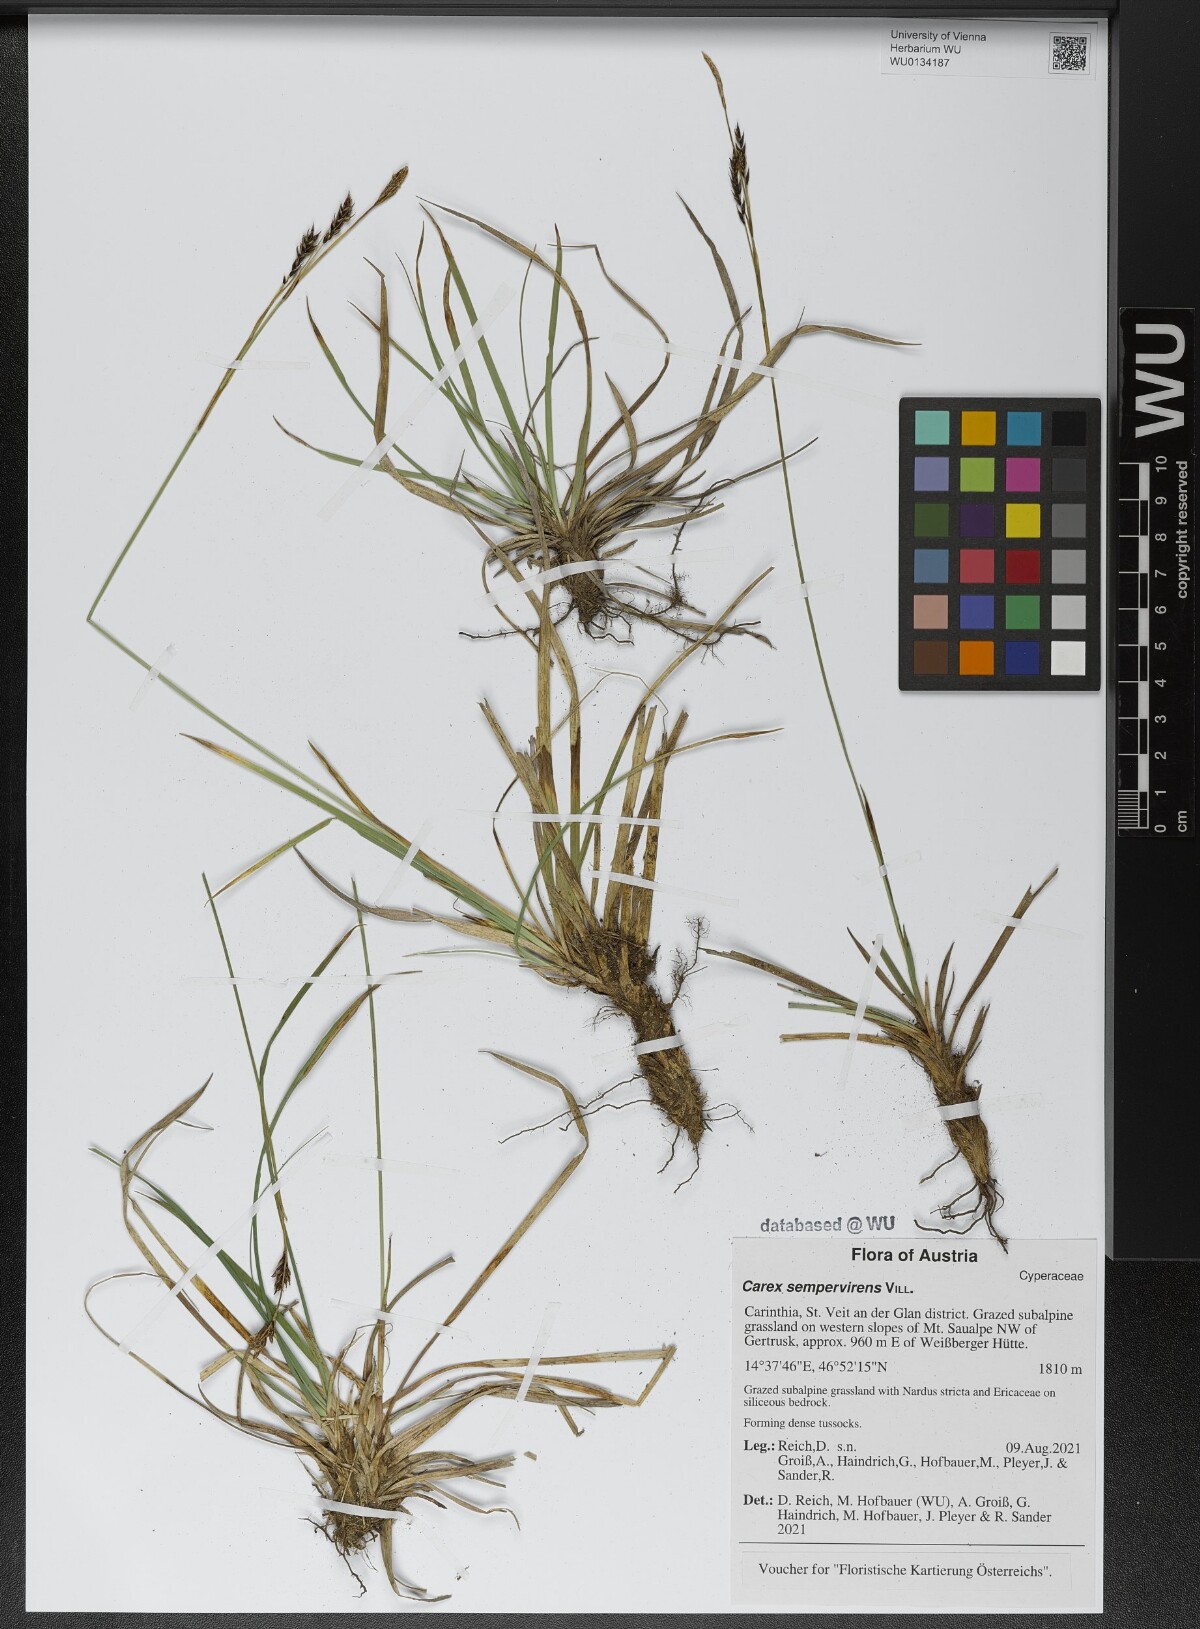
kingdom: Plantae
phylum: Tracheophyta
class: Liliopsida
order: Poales
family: Cyperaceae
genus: Carex
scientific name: Carex sempervirens
